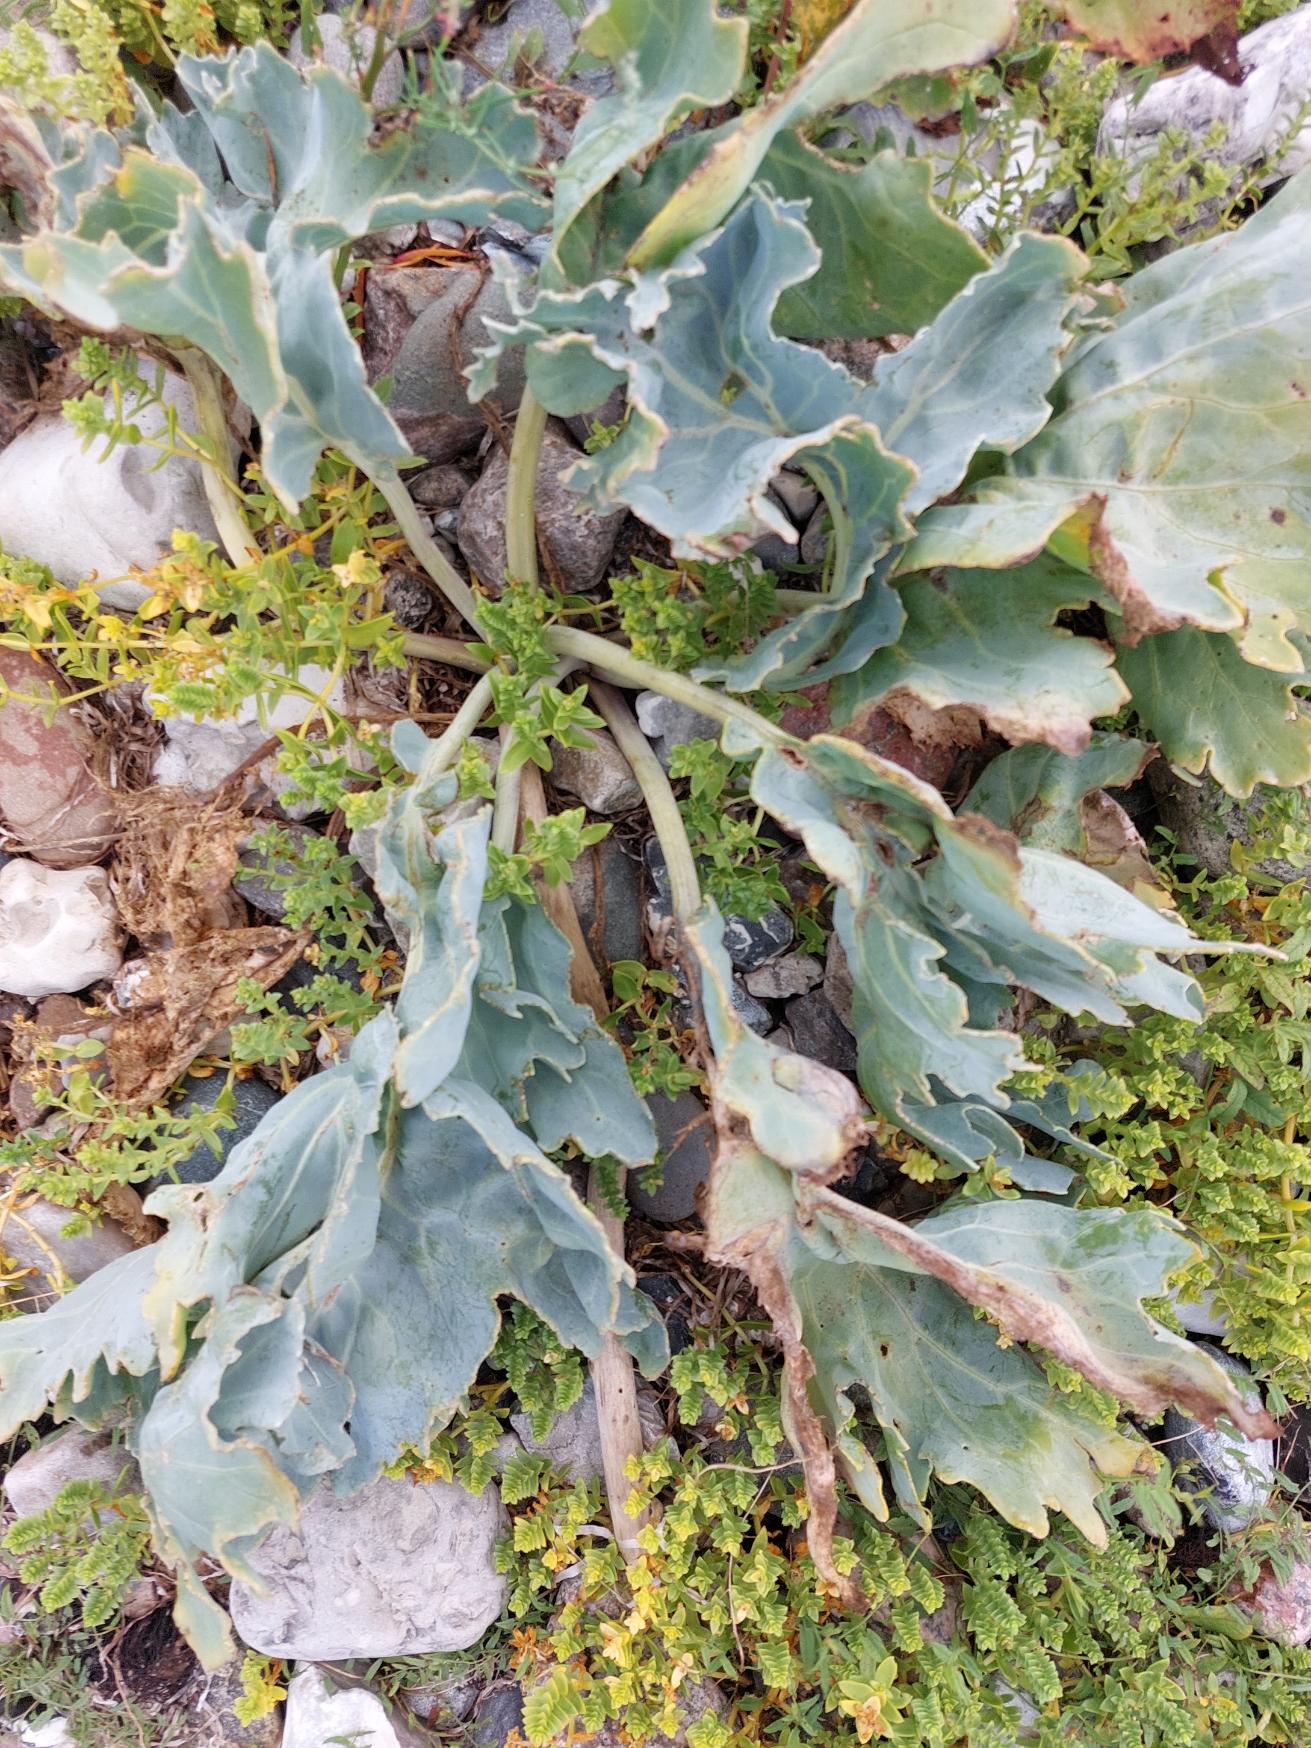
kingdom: Plantae
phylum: Tracheophyta
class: Magnoliopsida
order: Brassicales
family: Brassicaceae
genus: Crambe
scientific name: Crambe maritima
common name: Strandkål
